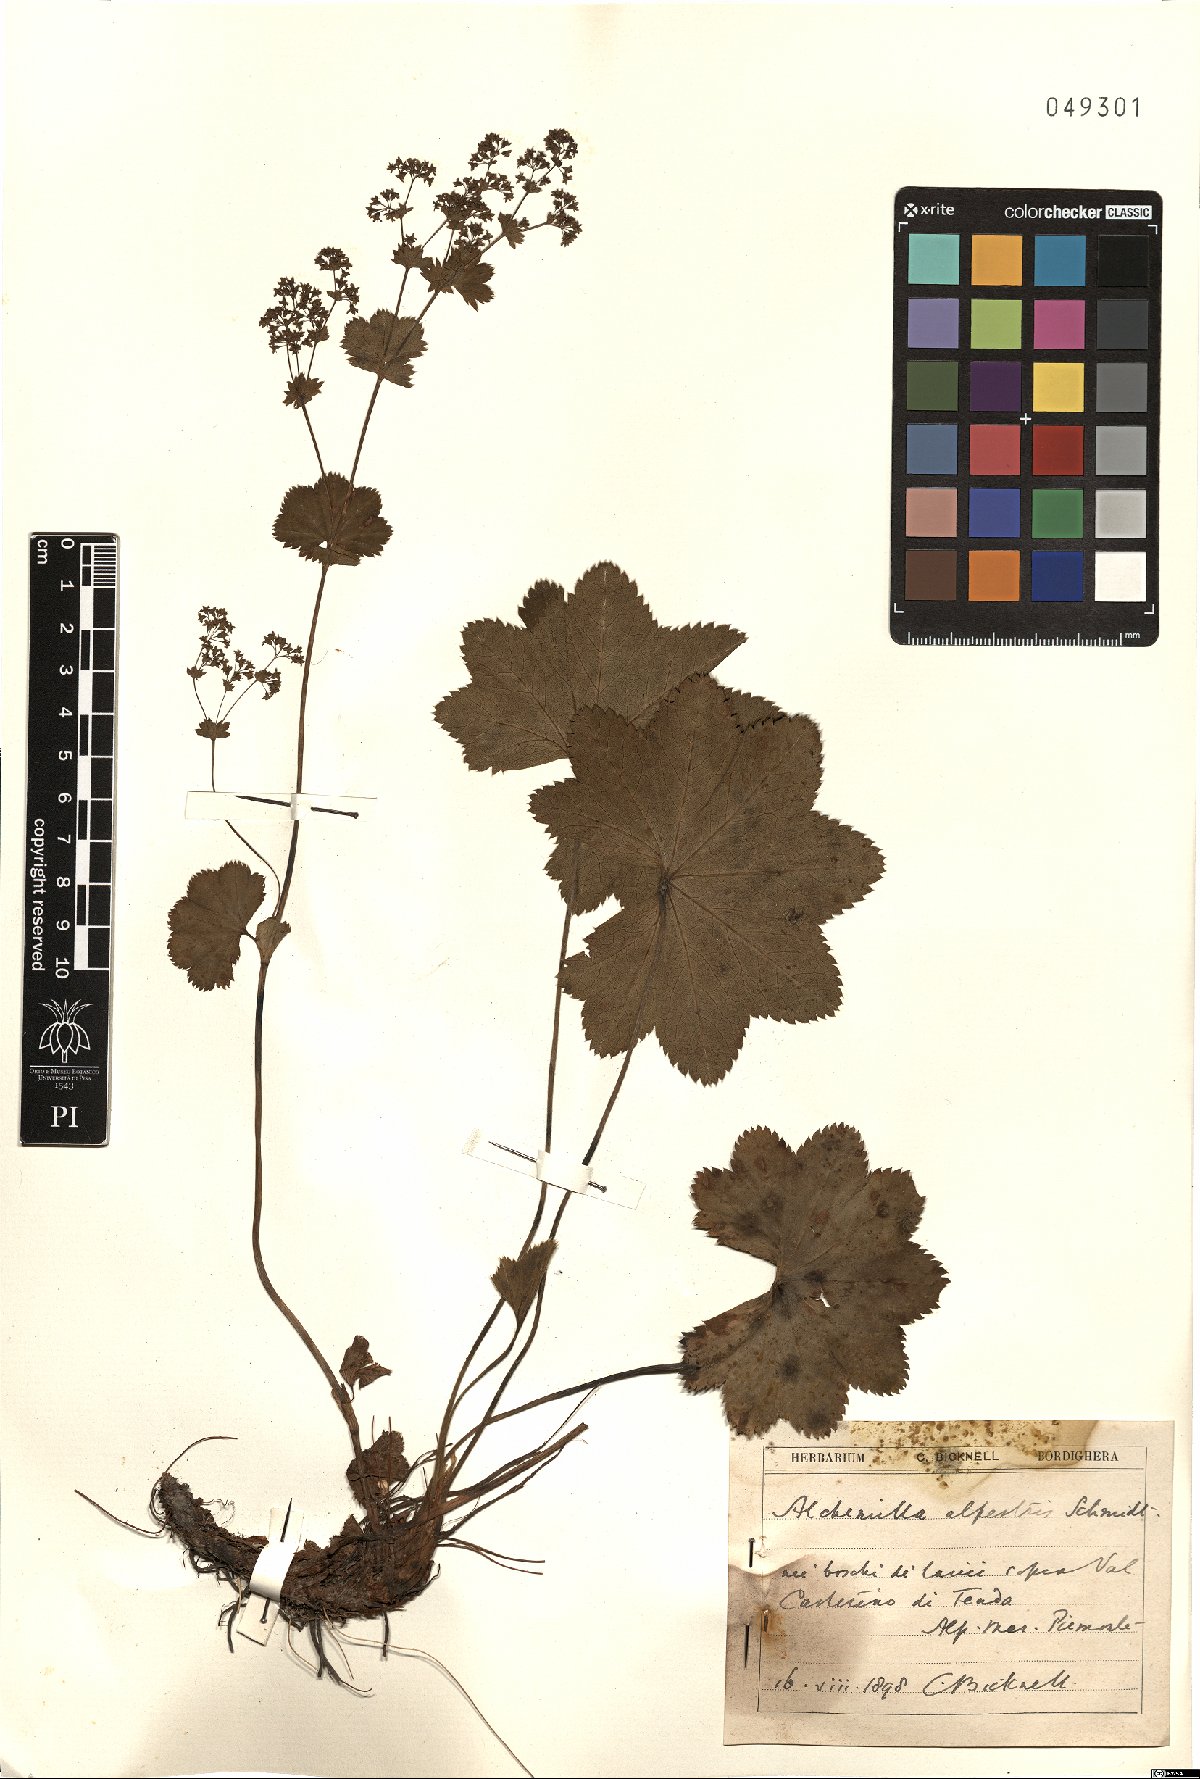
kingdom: Plantae
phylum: Tracheophyta
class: Magnoliopsida
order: Rosales
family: Rosaceae
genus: Alchemilla
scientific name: Alchemilla glabra
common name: Smooth lady's-mantle
